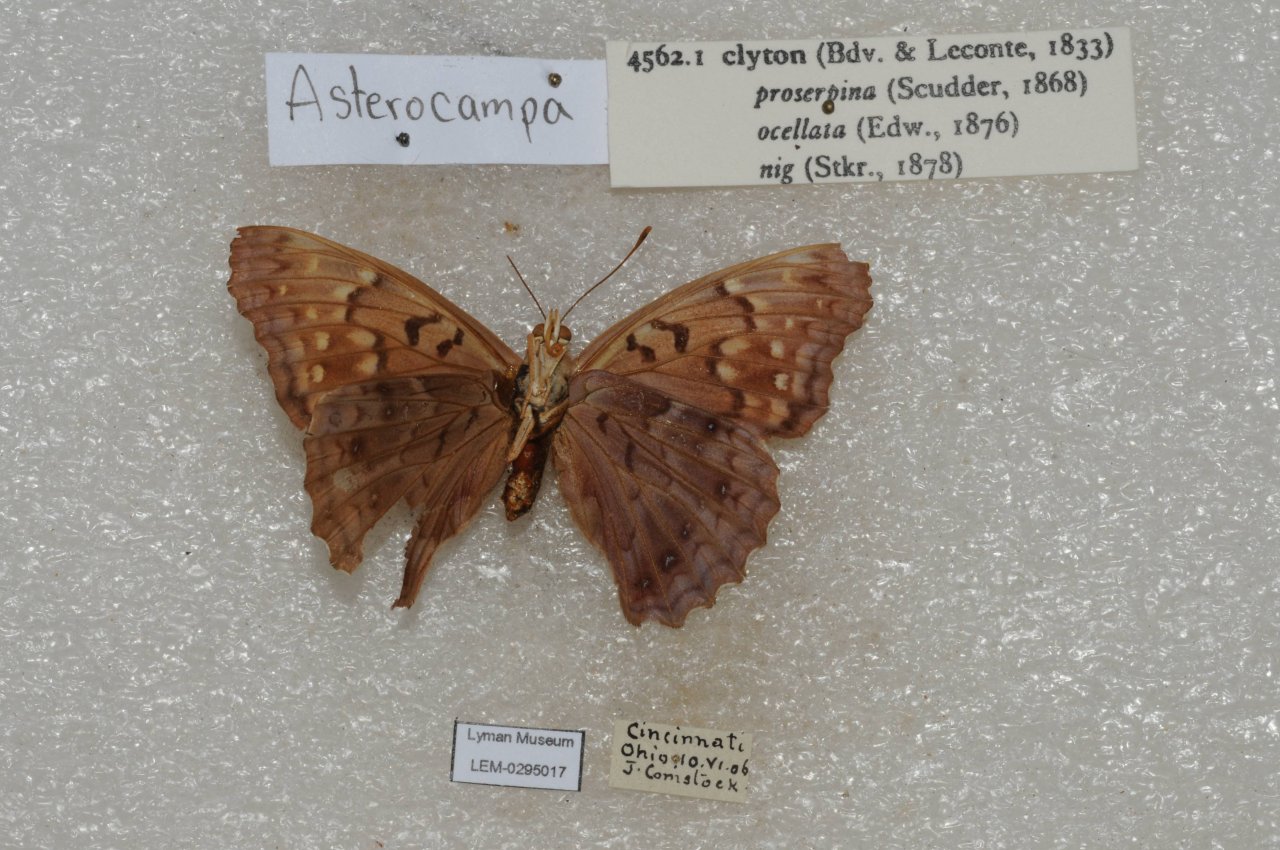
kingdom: Animalia
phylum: Arthropoda
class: Insecta
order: Lepidoptera
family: Nymphalidae
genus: Asterocampa
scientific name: Asterocampa clyton
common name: Tawny Emperor
